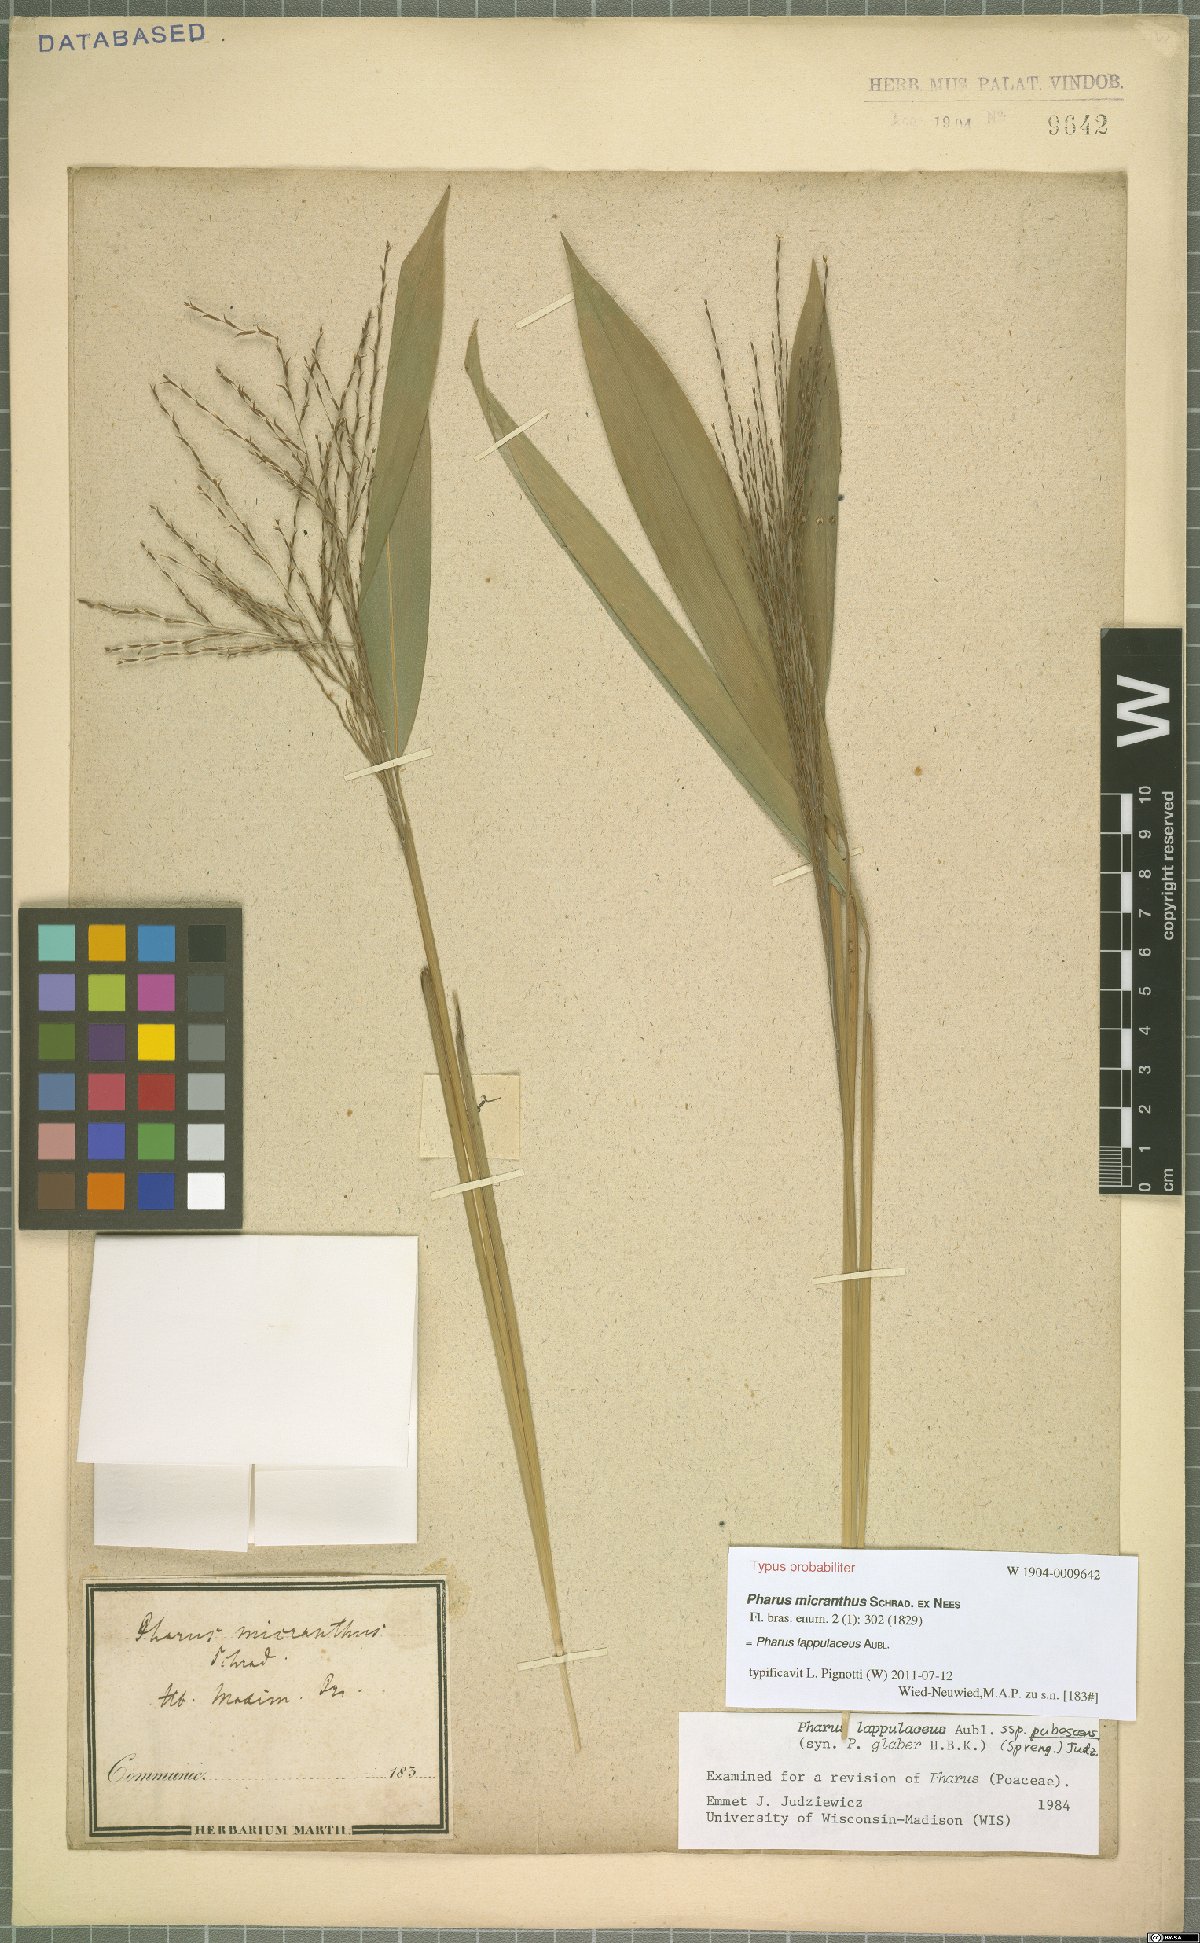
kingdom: Plantae
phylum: Tracheophyta
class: Liliopsida
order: Poales
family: Poaceae
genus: Pharus
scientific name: Pharus lappulaceus
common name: Creeping leafstalk grass
